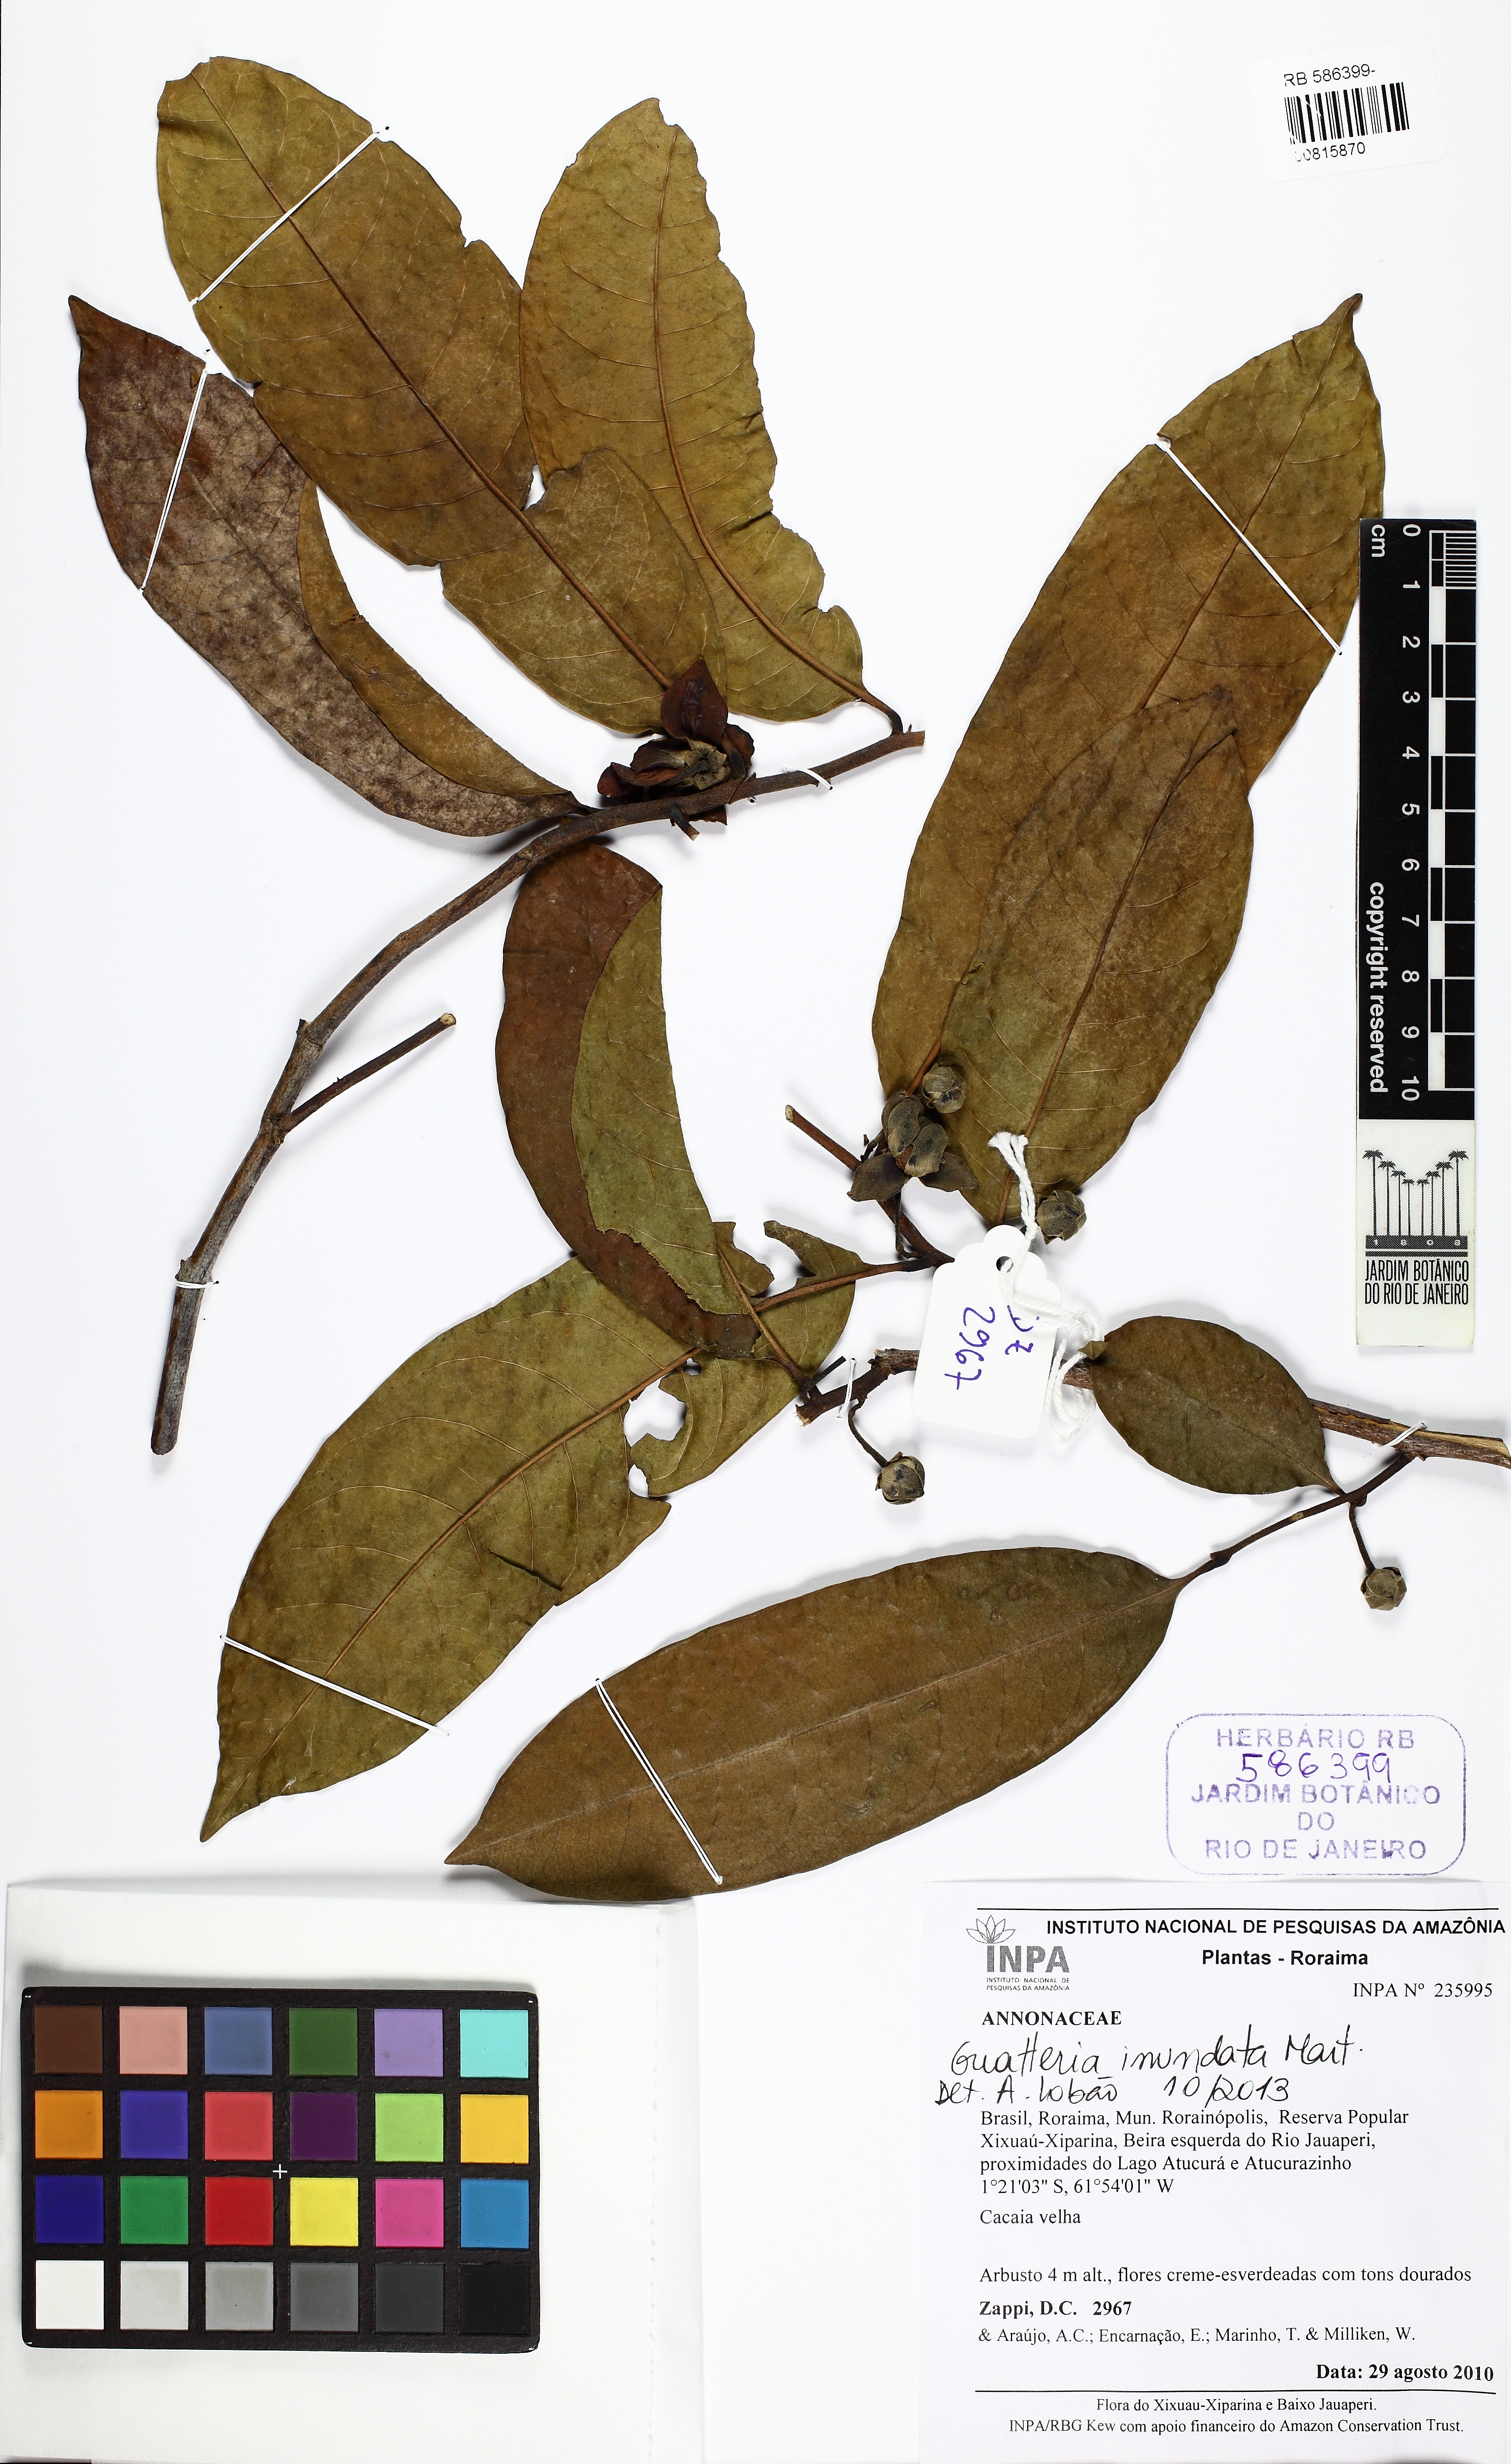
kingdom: Plantae
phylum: Tracheophyta
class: Magnoliopsida
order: Magnoliales
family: Annonaceae
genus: Guatteria
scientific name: Guatteria inundata
